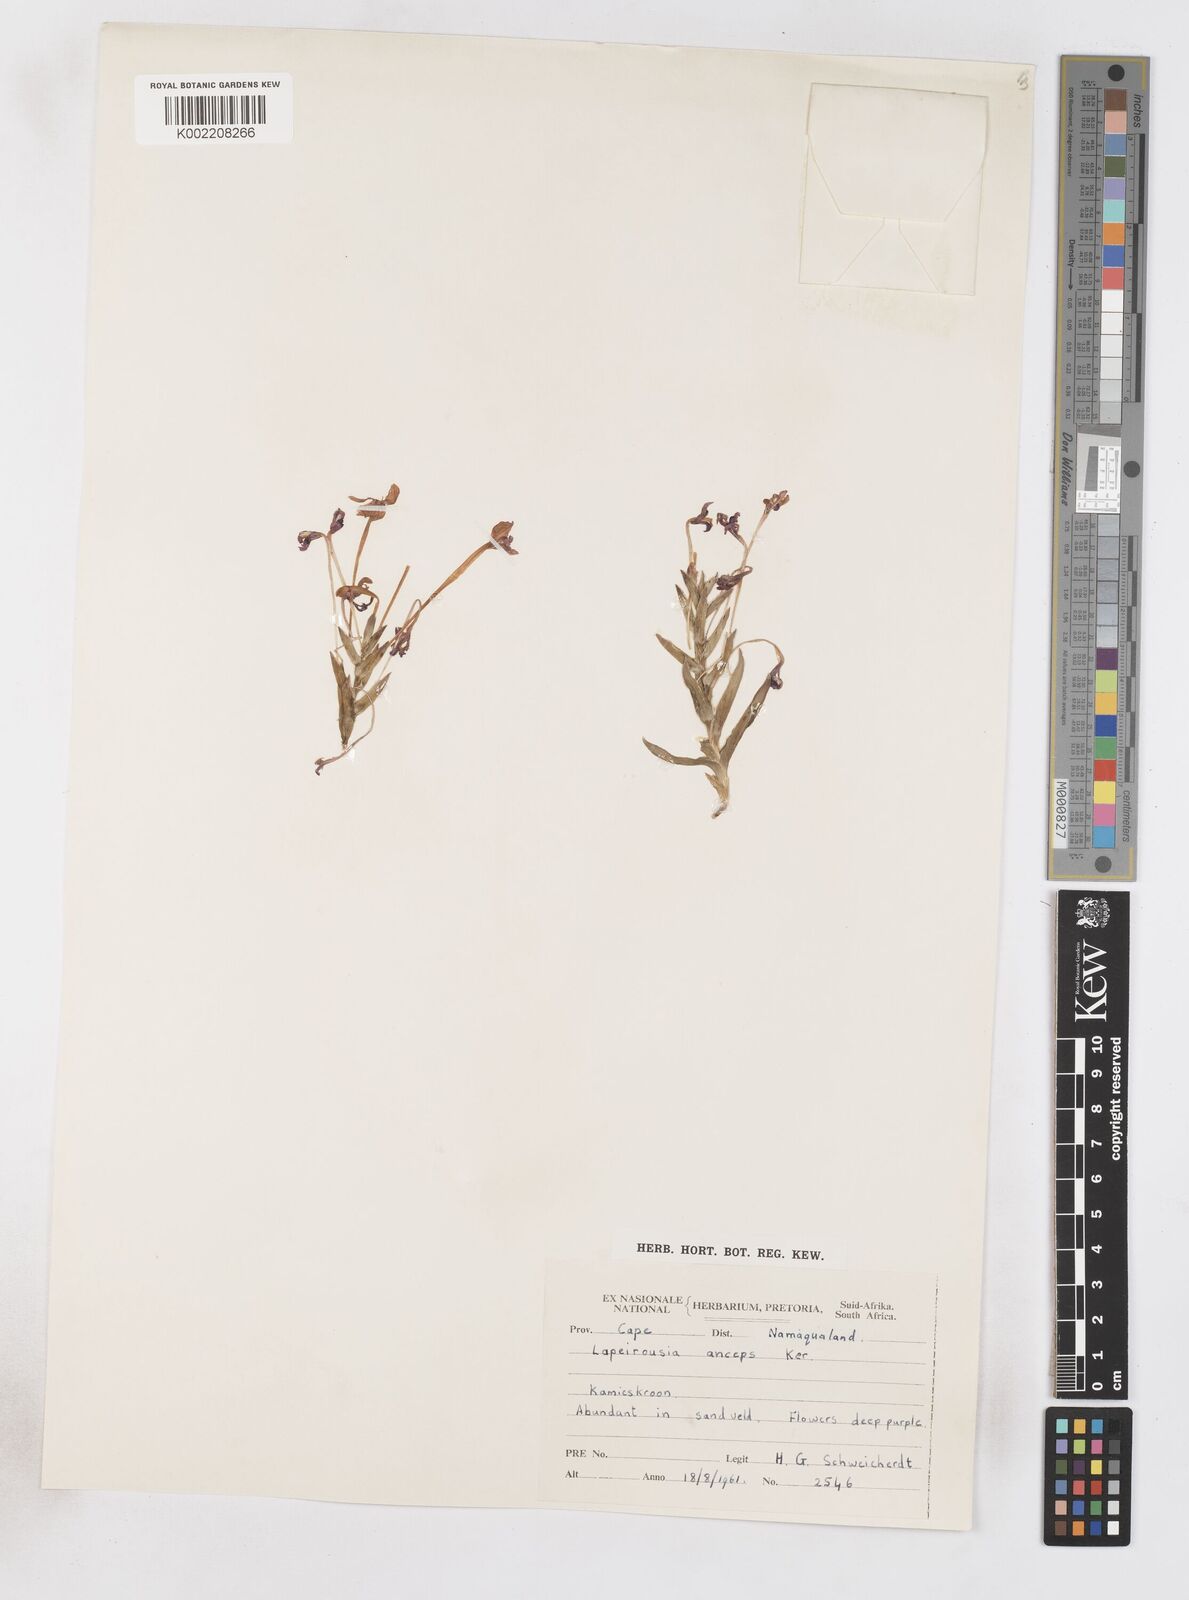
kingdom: Plantae
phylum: Tracheophyta
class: Liliopsida
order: Asparagales
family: Iridaceae
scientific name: Iridaceae
